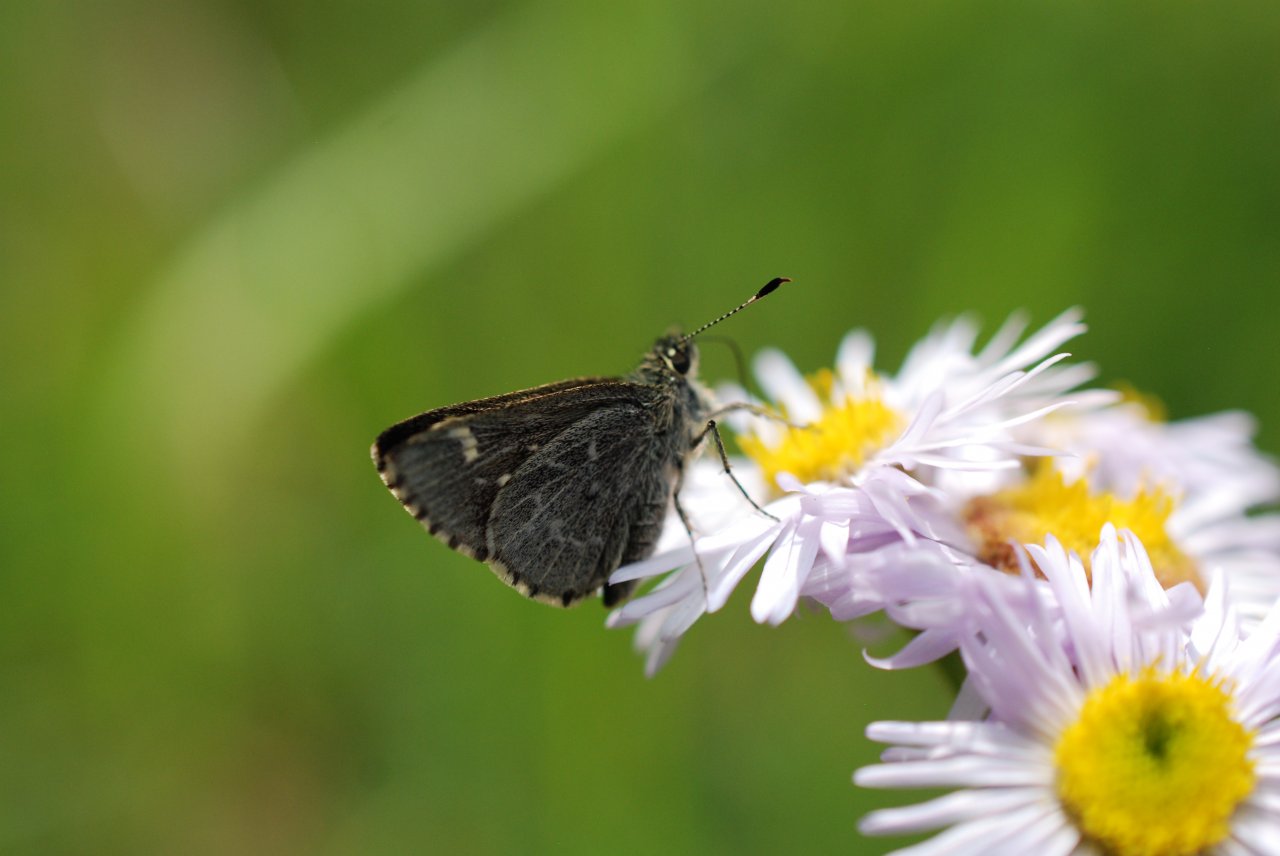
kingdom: Animalia
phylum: Arthropoda
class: Insecta
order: Lepidoptera
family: Hesperiidae
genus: Mastor
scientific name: Mastor hegon
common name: Pepper and Salt Skipper
